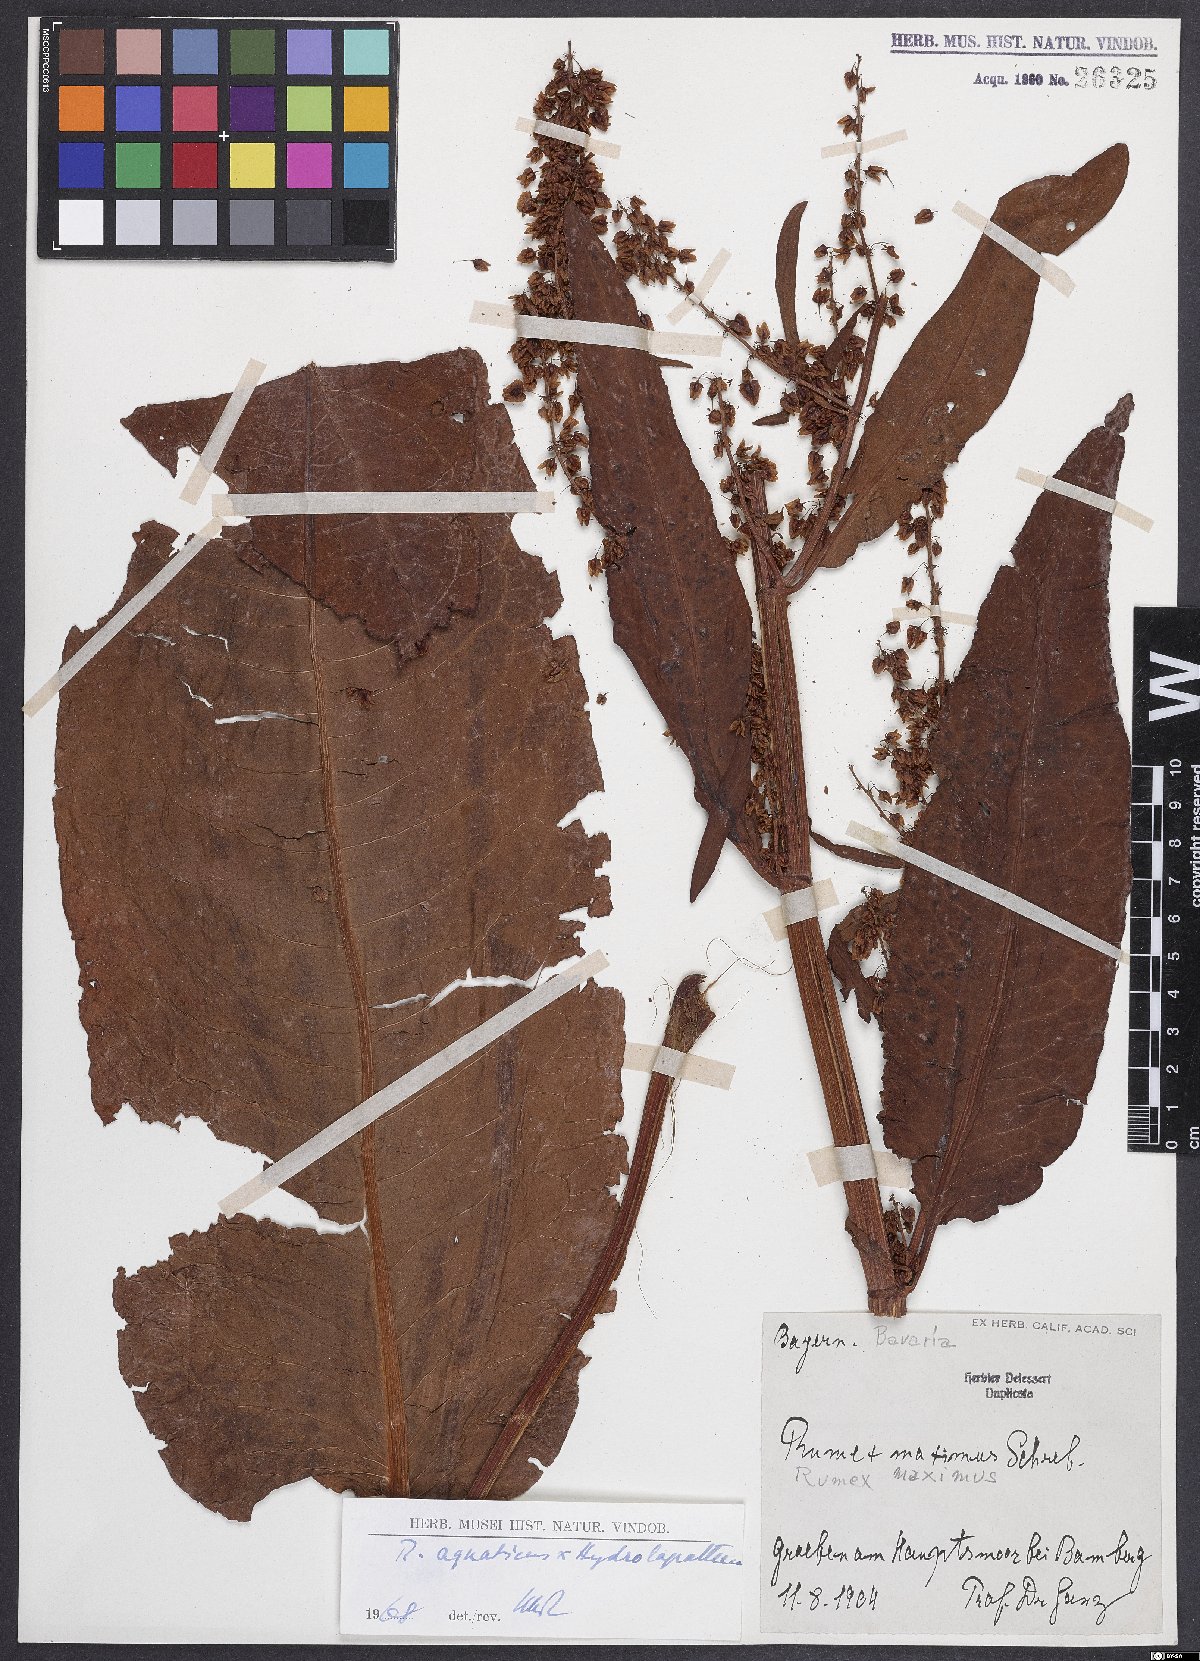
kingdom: Plantae
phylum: Tracheophyta
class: Magnoliopsida
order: Caryophyllales
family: Polygonaceae
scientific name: Polygonaceae
